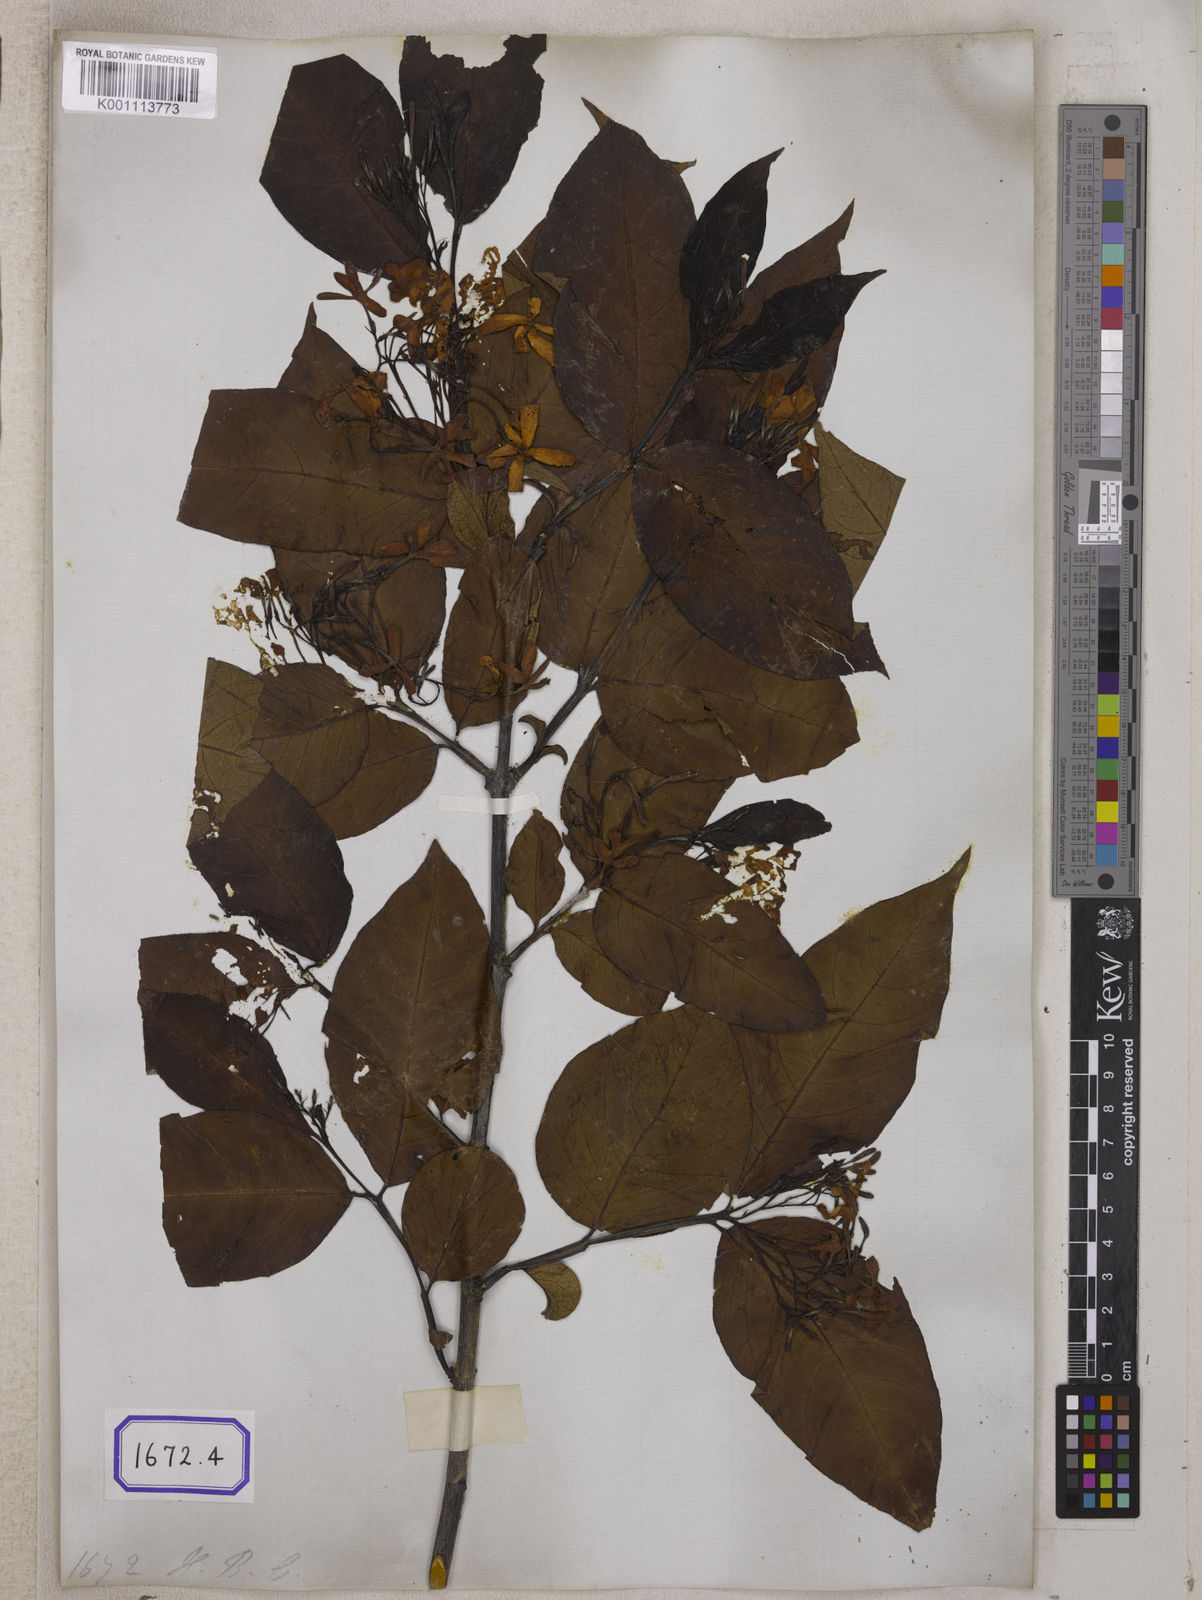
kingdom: Plantae
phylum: Tracheophyta
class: Magnoliopsida
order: Gentianales
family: Apocynaceae
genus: Holarrhena
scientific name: Holarrhena pubescens
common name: Bitter oleander
